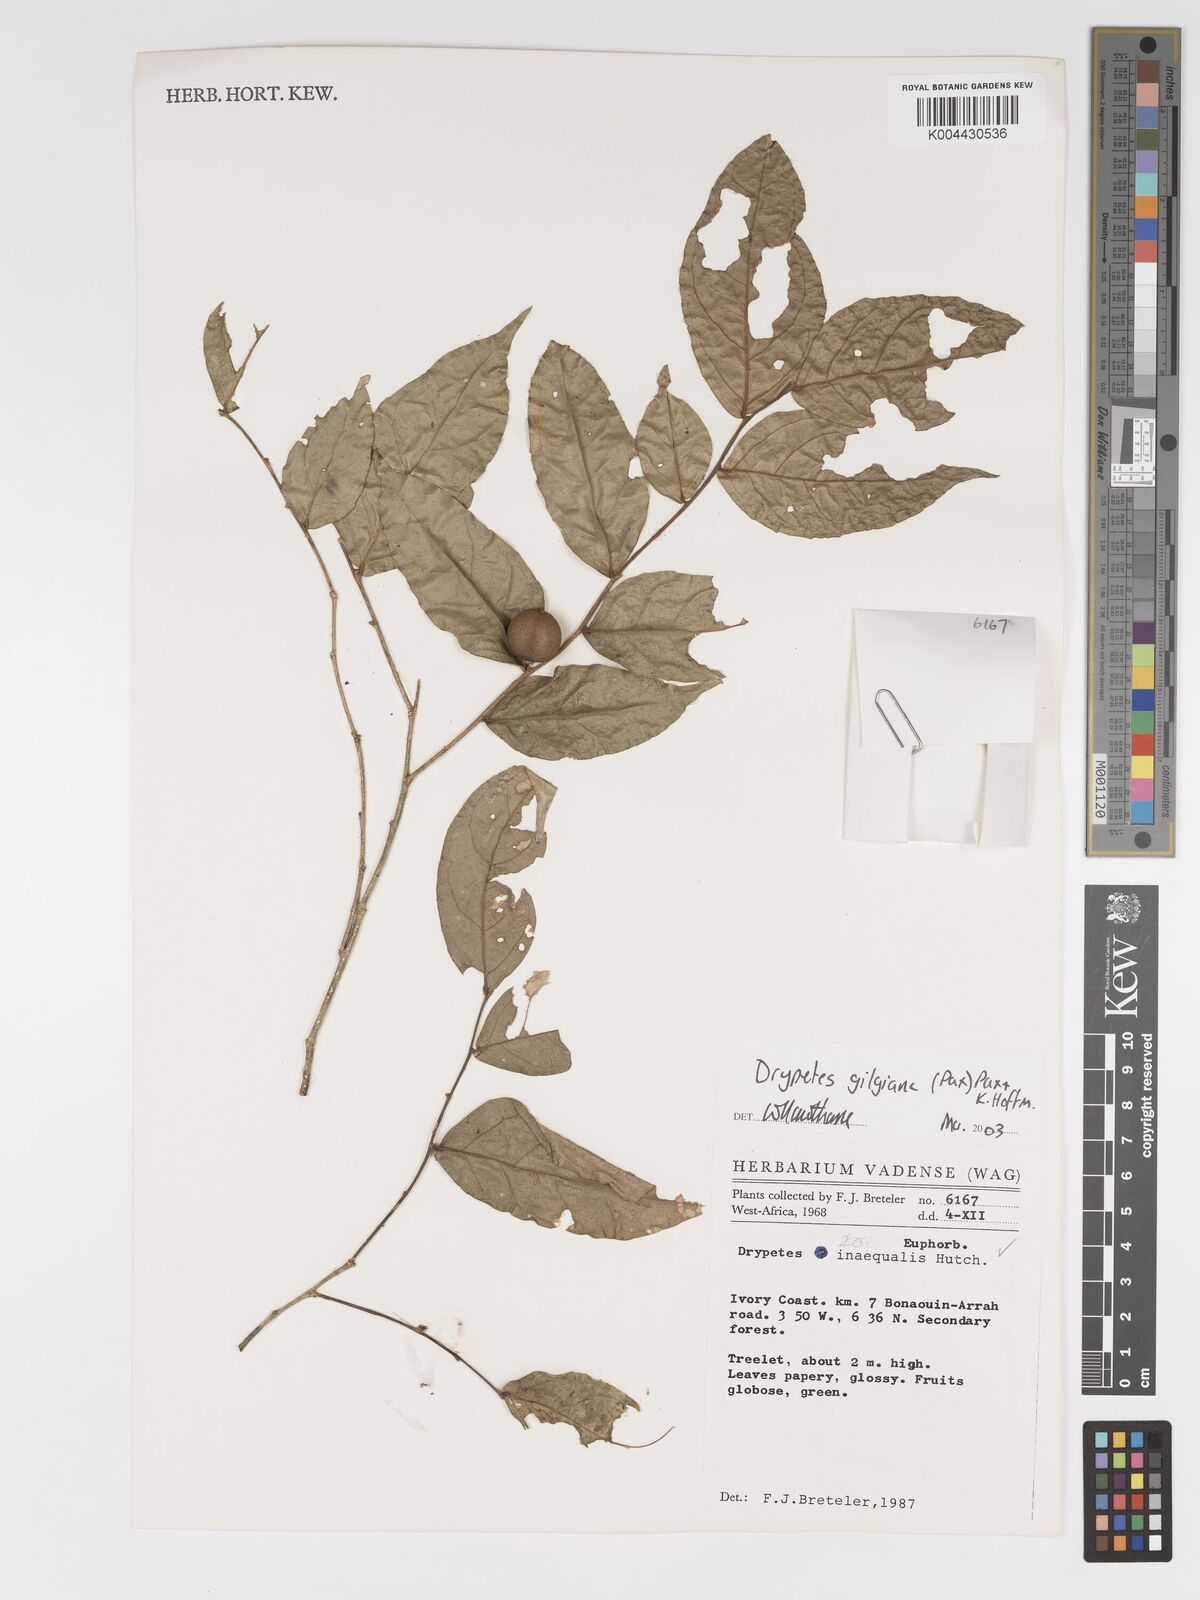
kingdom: Plantae
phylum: Tracheophyta
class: Magnoliopsida
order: Malpighiales
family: Putranjivaceae
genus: Drypetes
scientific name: Drypetes gilgiana
